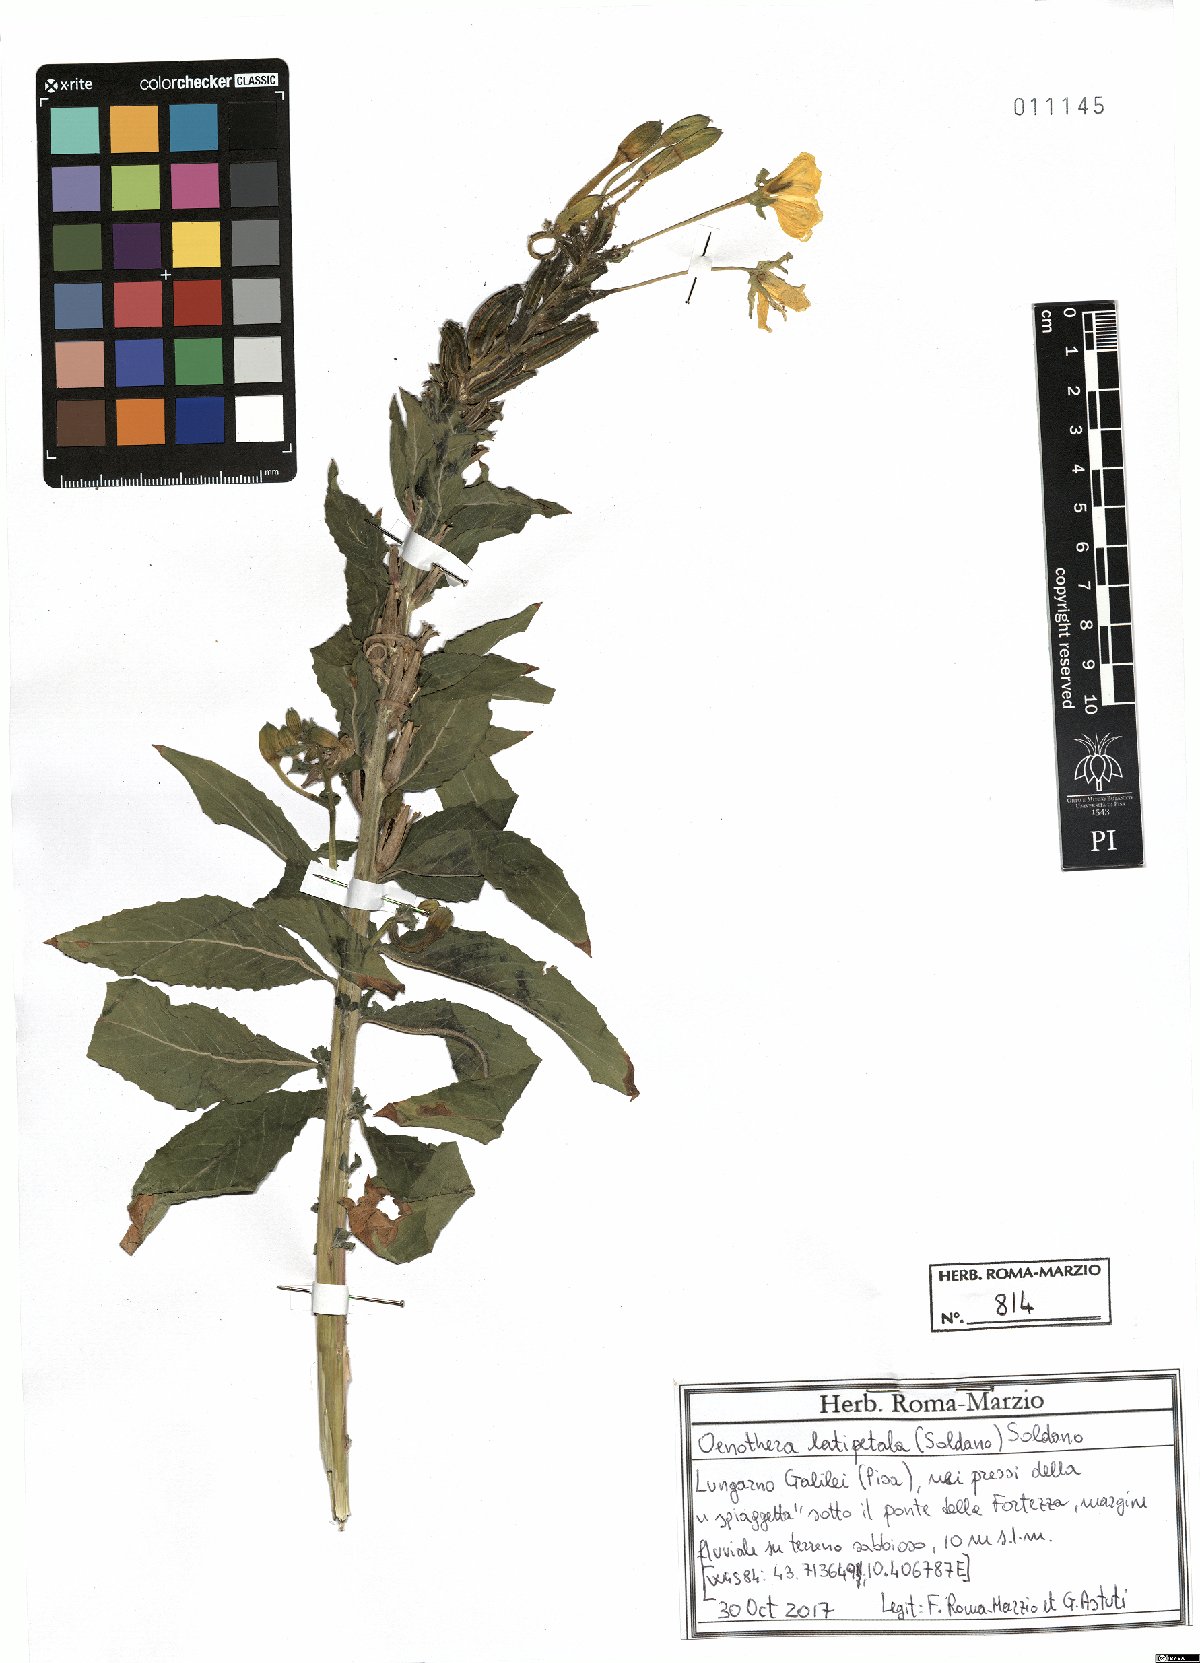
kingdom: Plantae
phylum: Tracheophyta
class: Magnoliopsida
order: Myrtales
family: Onagraceae
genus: Oenothera
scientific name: Oenothera latipetala
